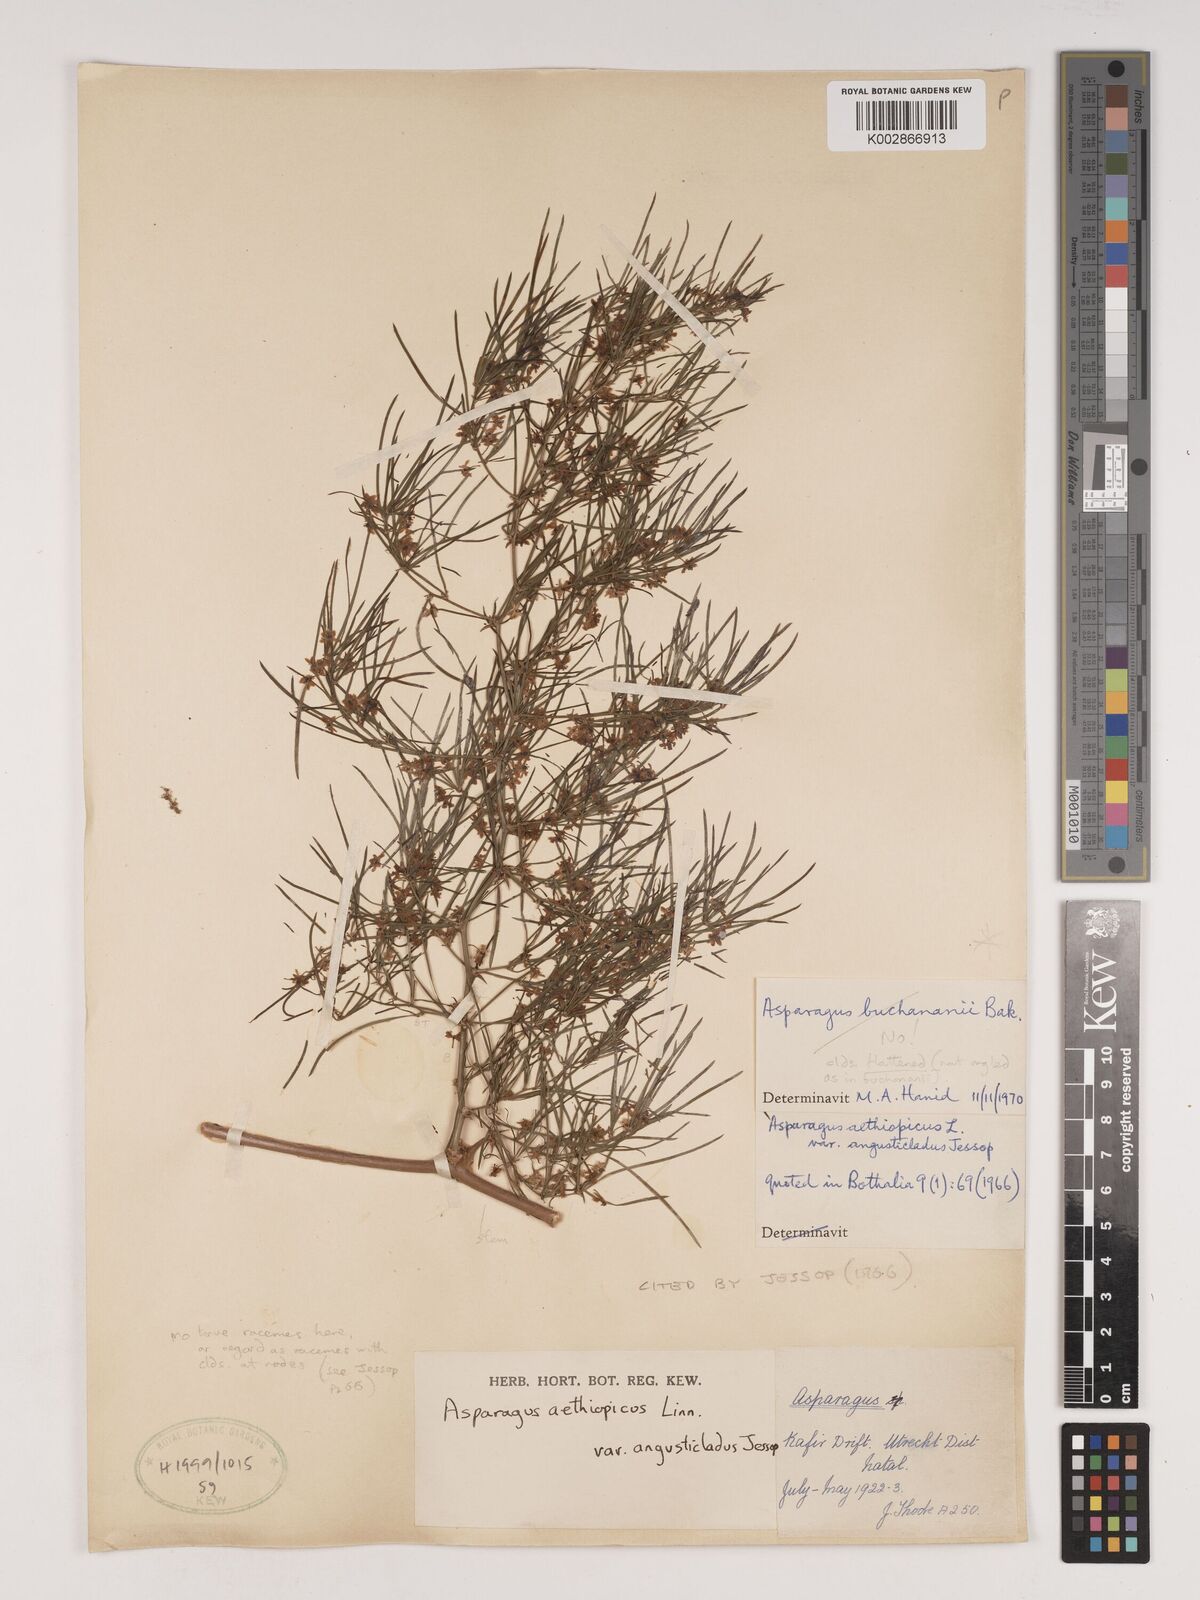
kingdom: Plantae
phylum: Tracheophyta
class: Liliopsida
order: Asparagales
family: Asparagaceae
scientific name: Asparagaceae
